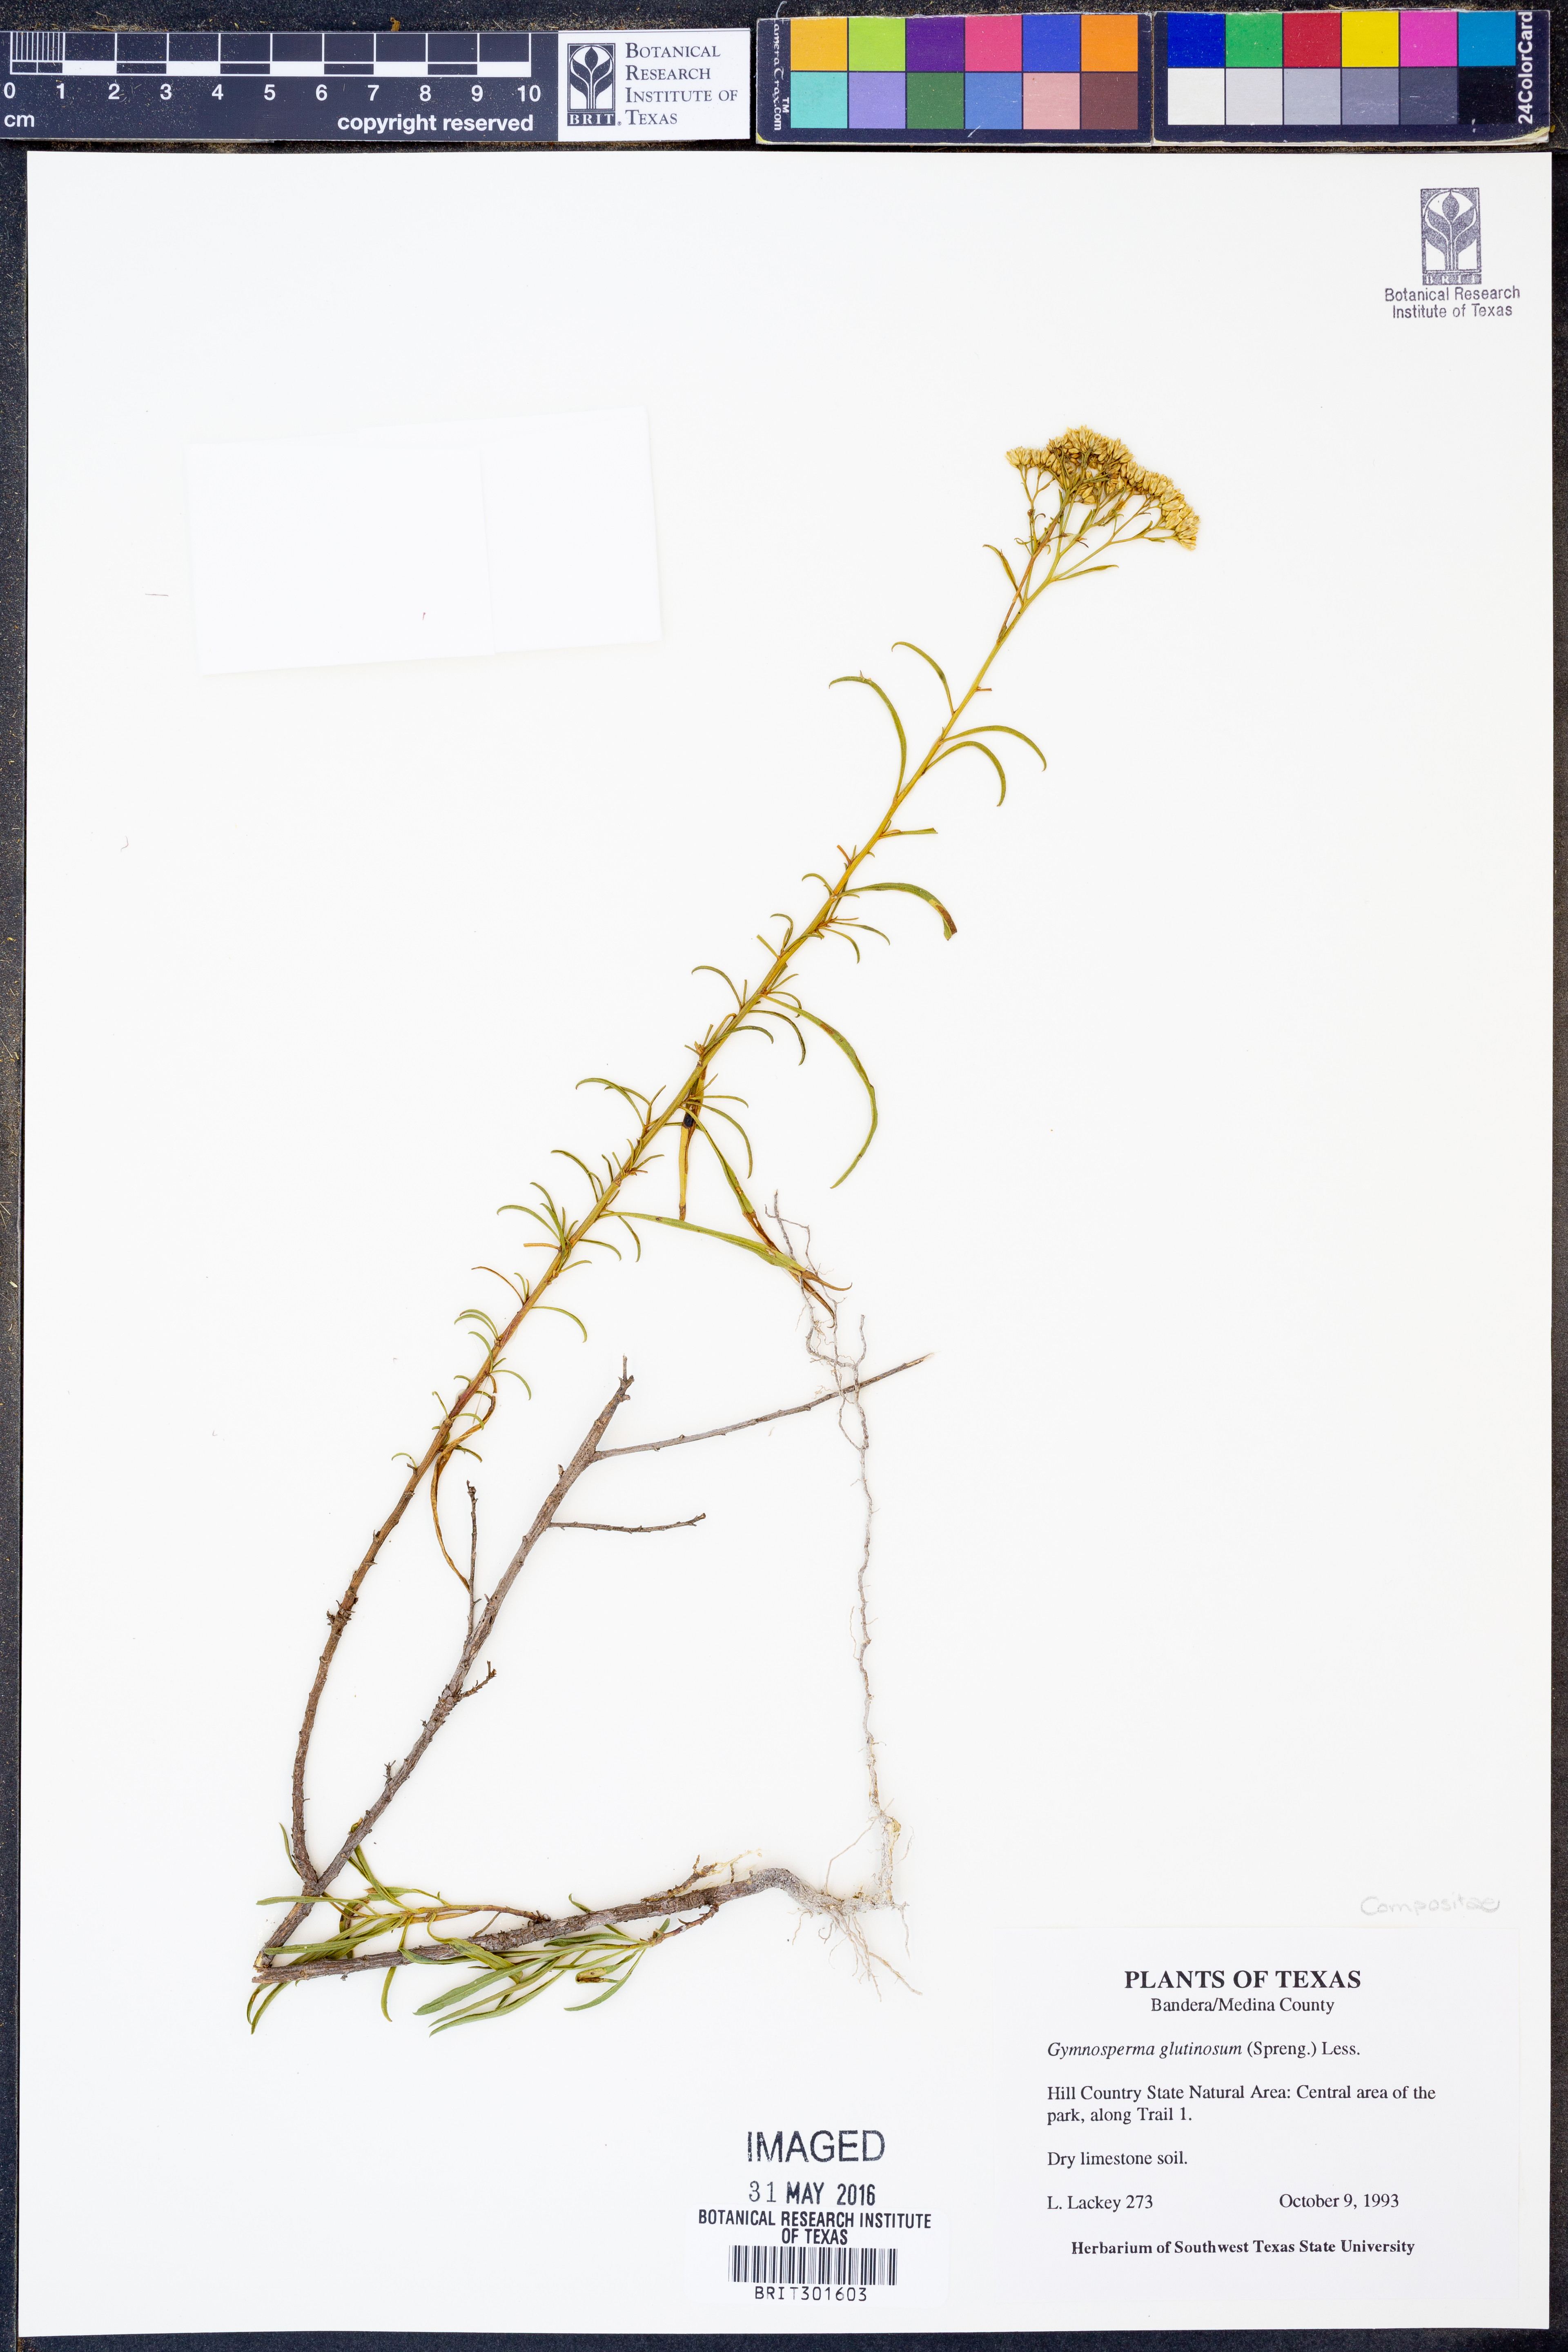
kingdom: Plantae
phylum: Tracheophyta
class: Magnoliopsida
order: Asterales
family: Asteraceae
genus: Gymnosperma
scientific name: Gymnosperma glutinosum
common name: Gumhead
